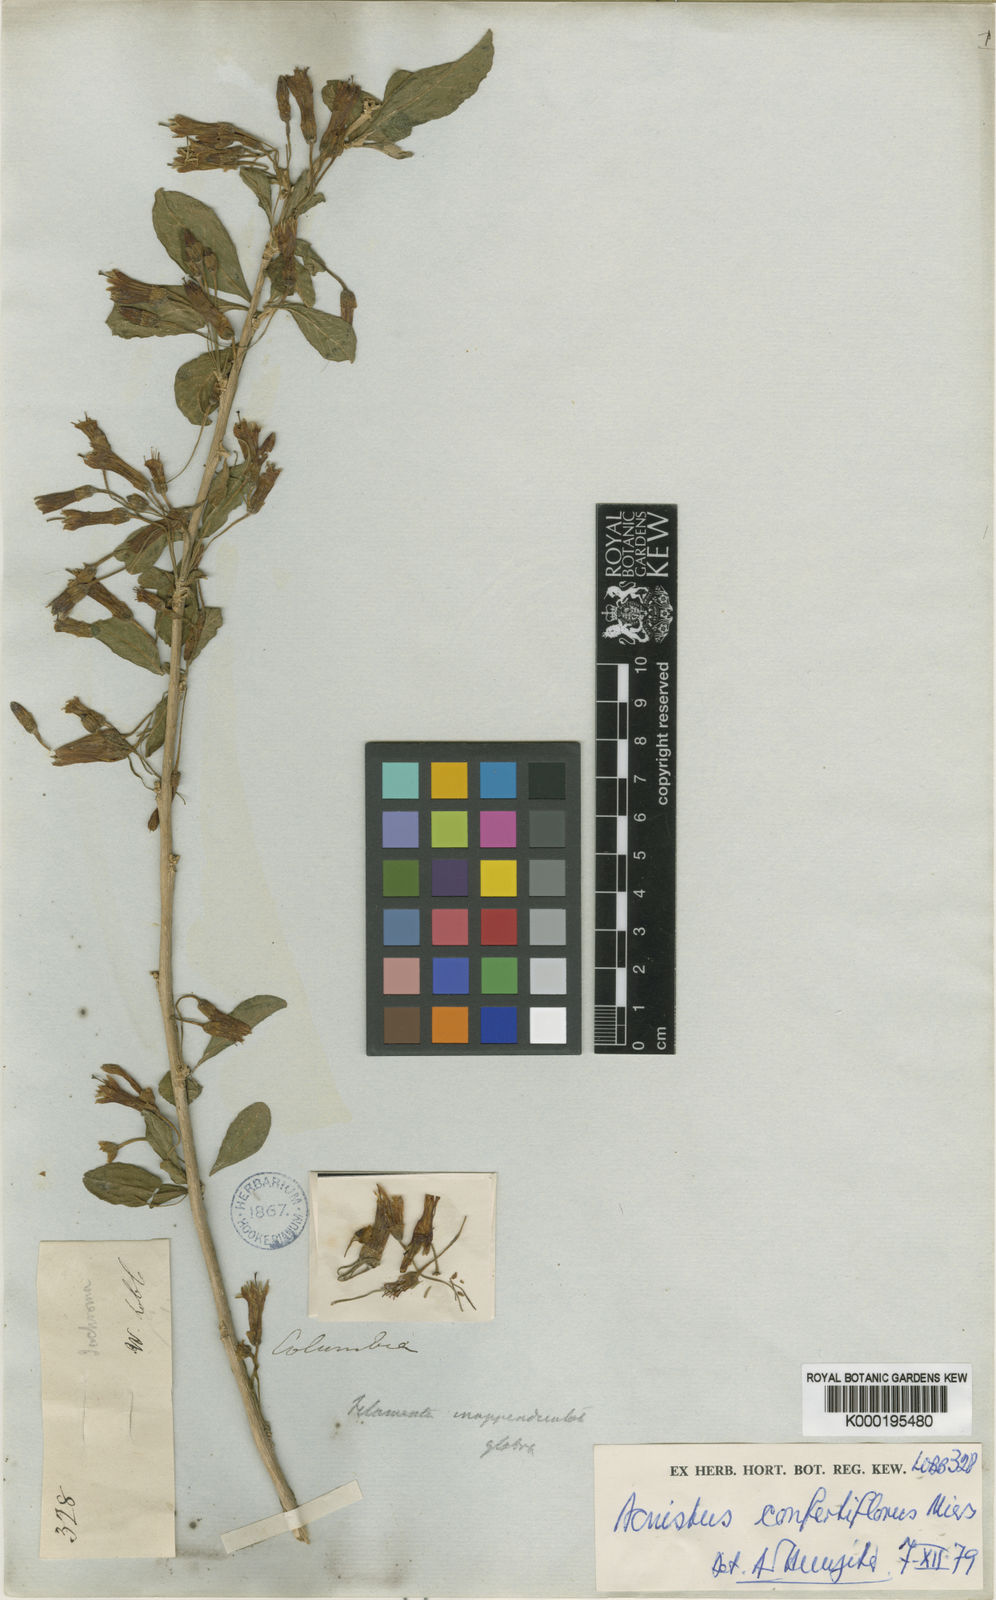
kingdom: Plantae
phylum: Tracheophyta
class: Magnoliopsida
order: Solanales
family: Solanaceae
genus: Iochroma
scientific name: Iochroma confertiflorum
